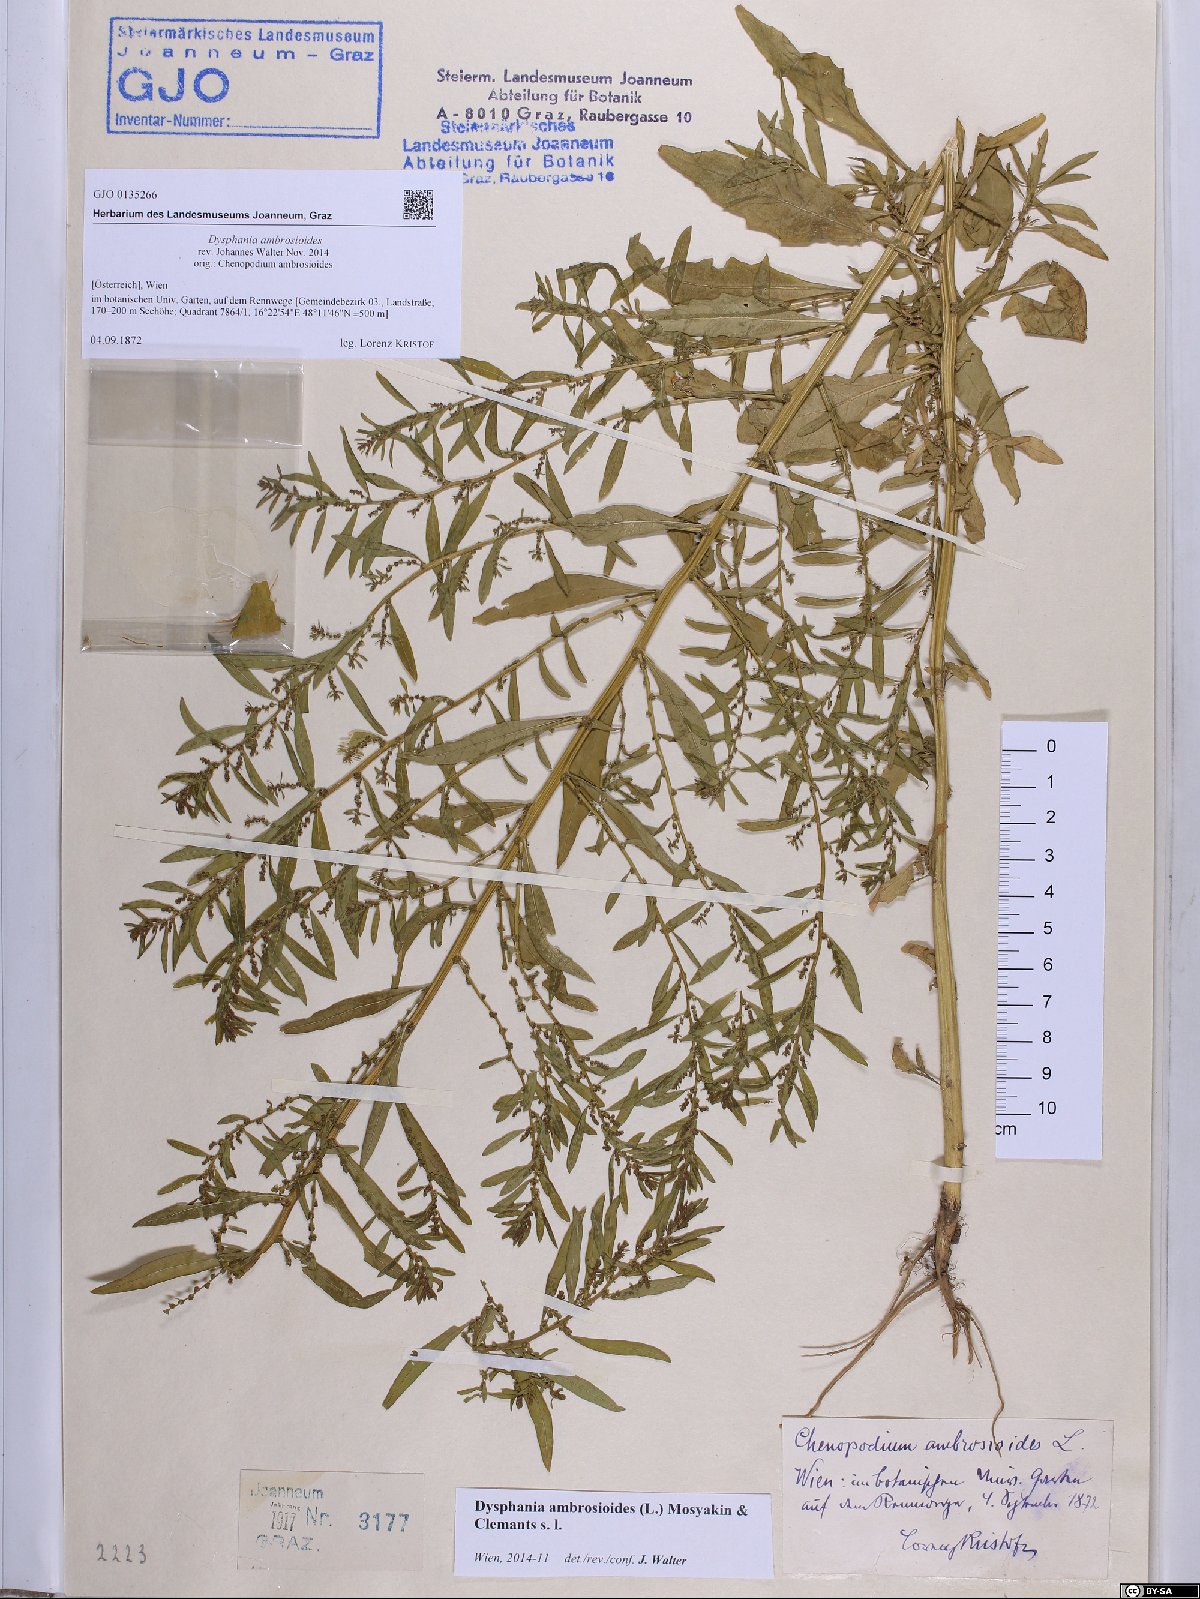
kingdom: Plantae
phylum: Tracheophyta
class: Magnoliopsida
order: Caryophyllales
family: Amaranthaceae
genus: Dysphania
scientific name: Dysphania ambrosioides
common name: Wormseed
